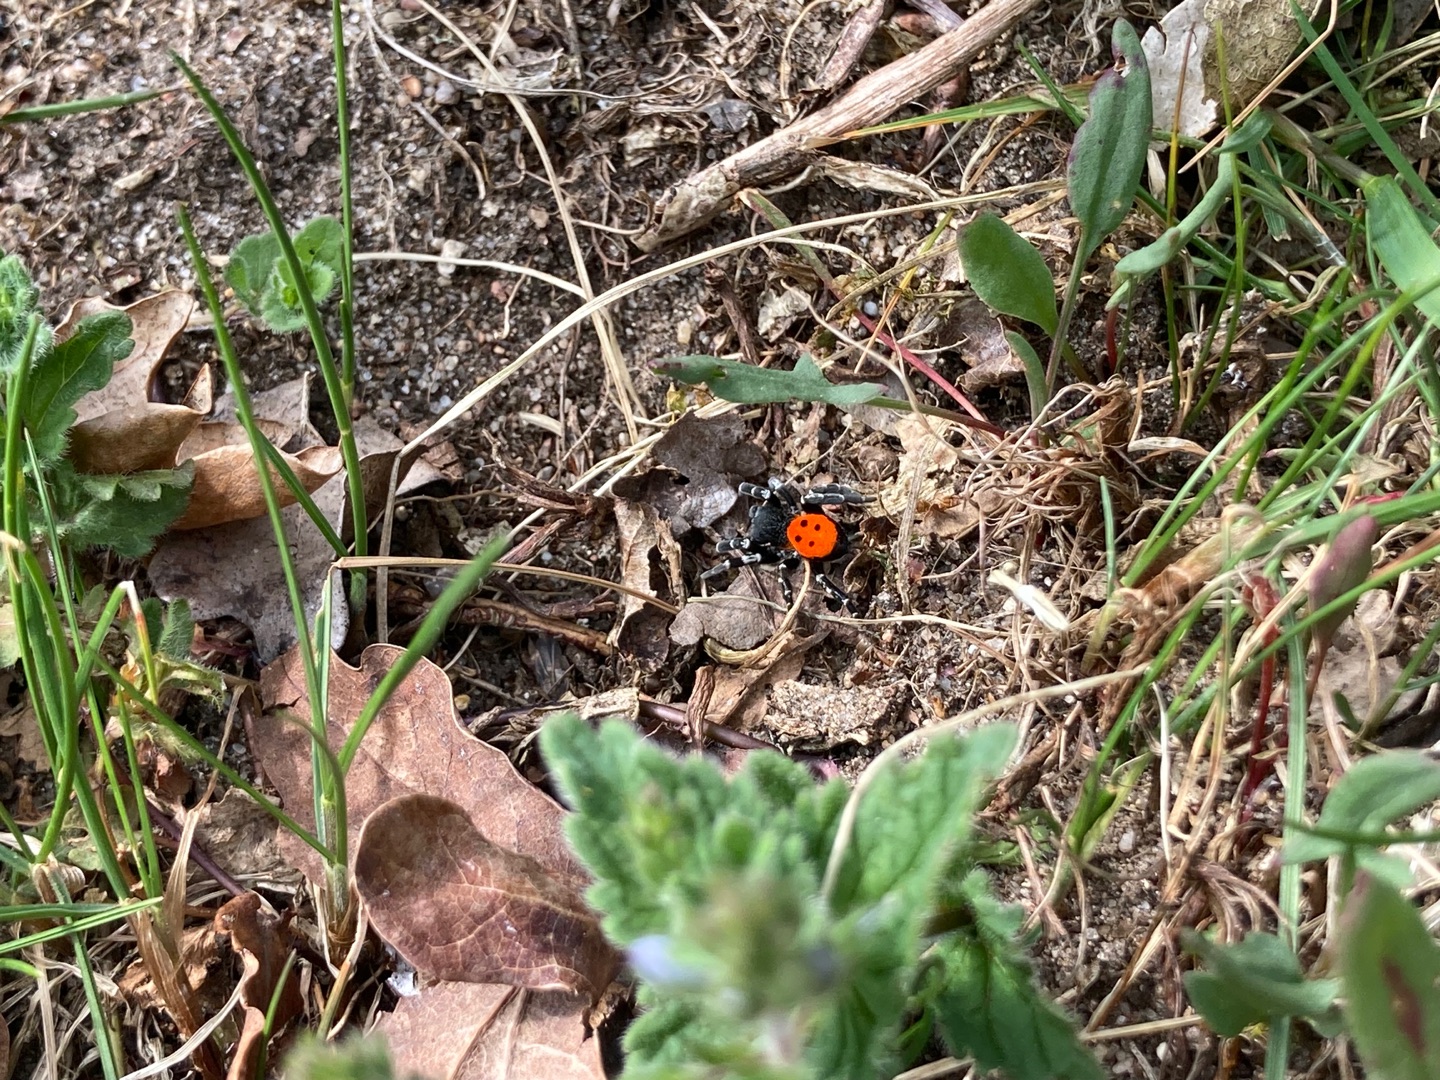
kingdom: Animalia
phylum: Arthropoda
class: Arachnida
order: Araneae
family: Eresidae
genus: Eresus
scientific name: Eresus sandaliatus
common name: Mariehøneedderkop
